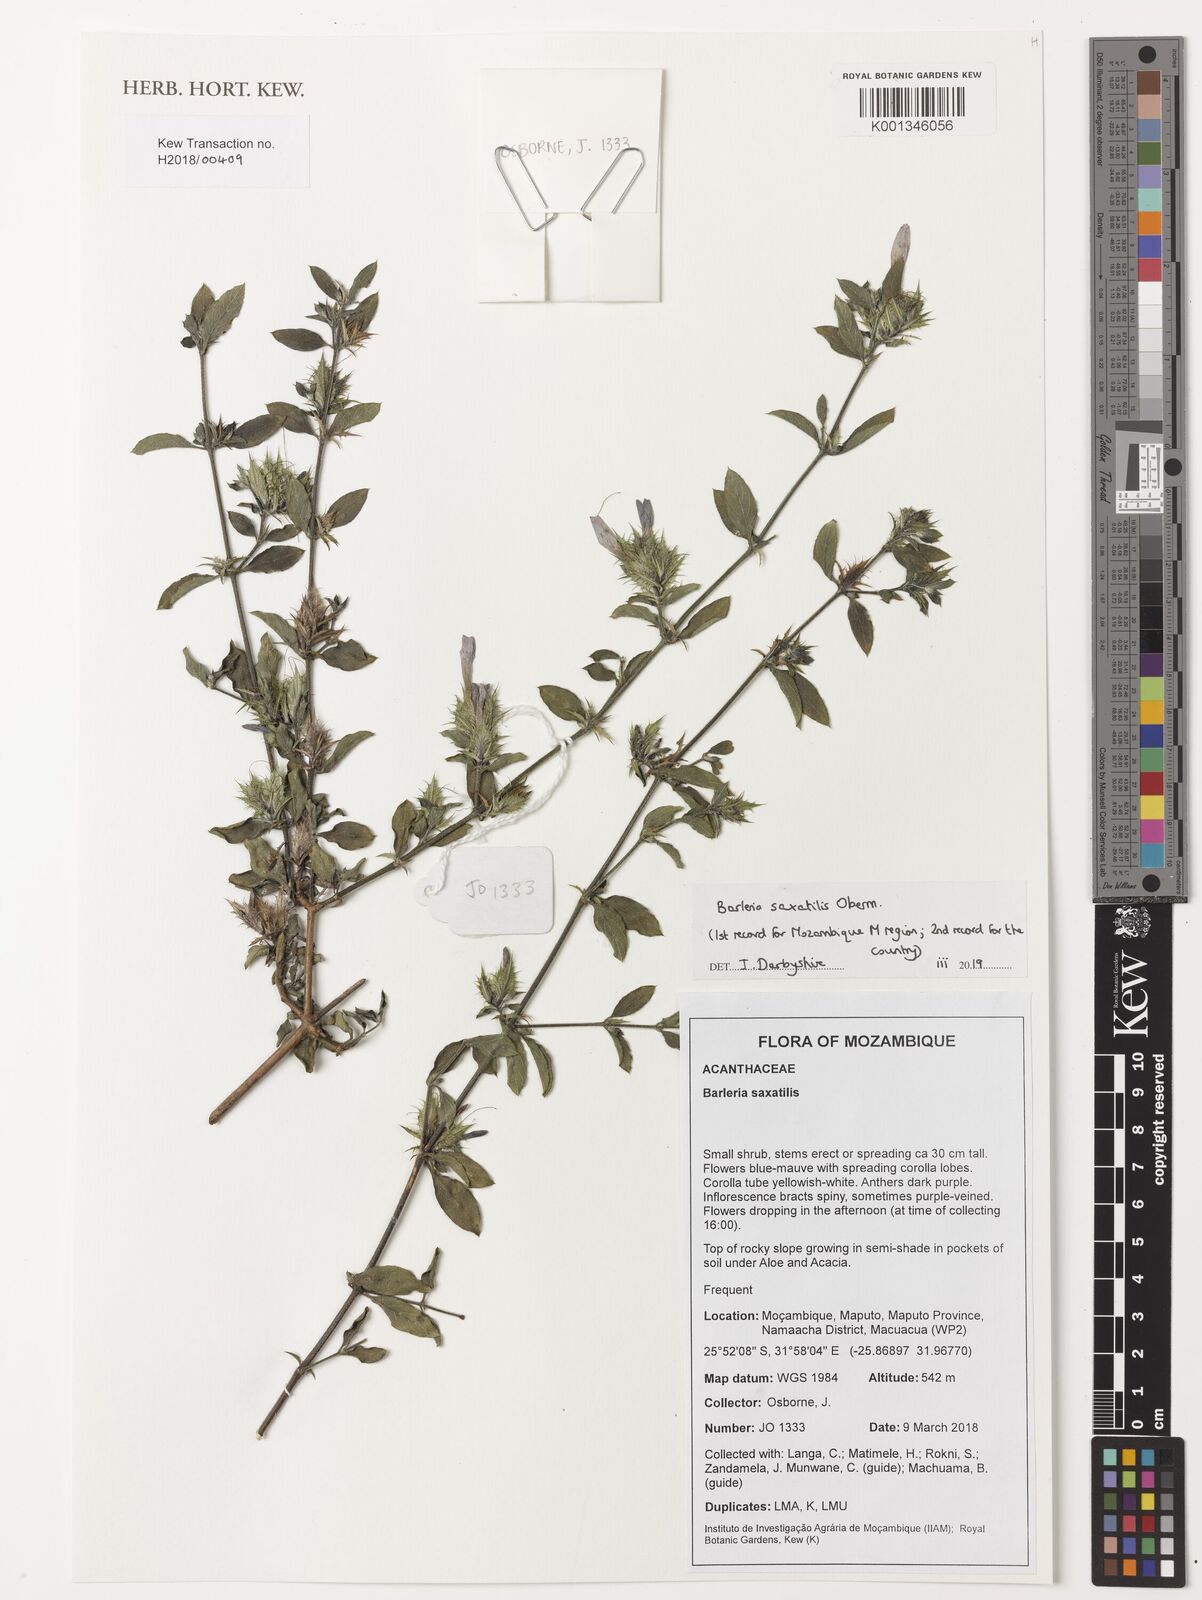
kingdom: Plantae
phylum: Tracheophyta
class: Magnoliopsida
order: Lamiales
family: Acanthaceae
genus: Barleria
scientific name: Barleria saxatilis
